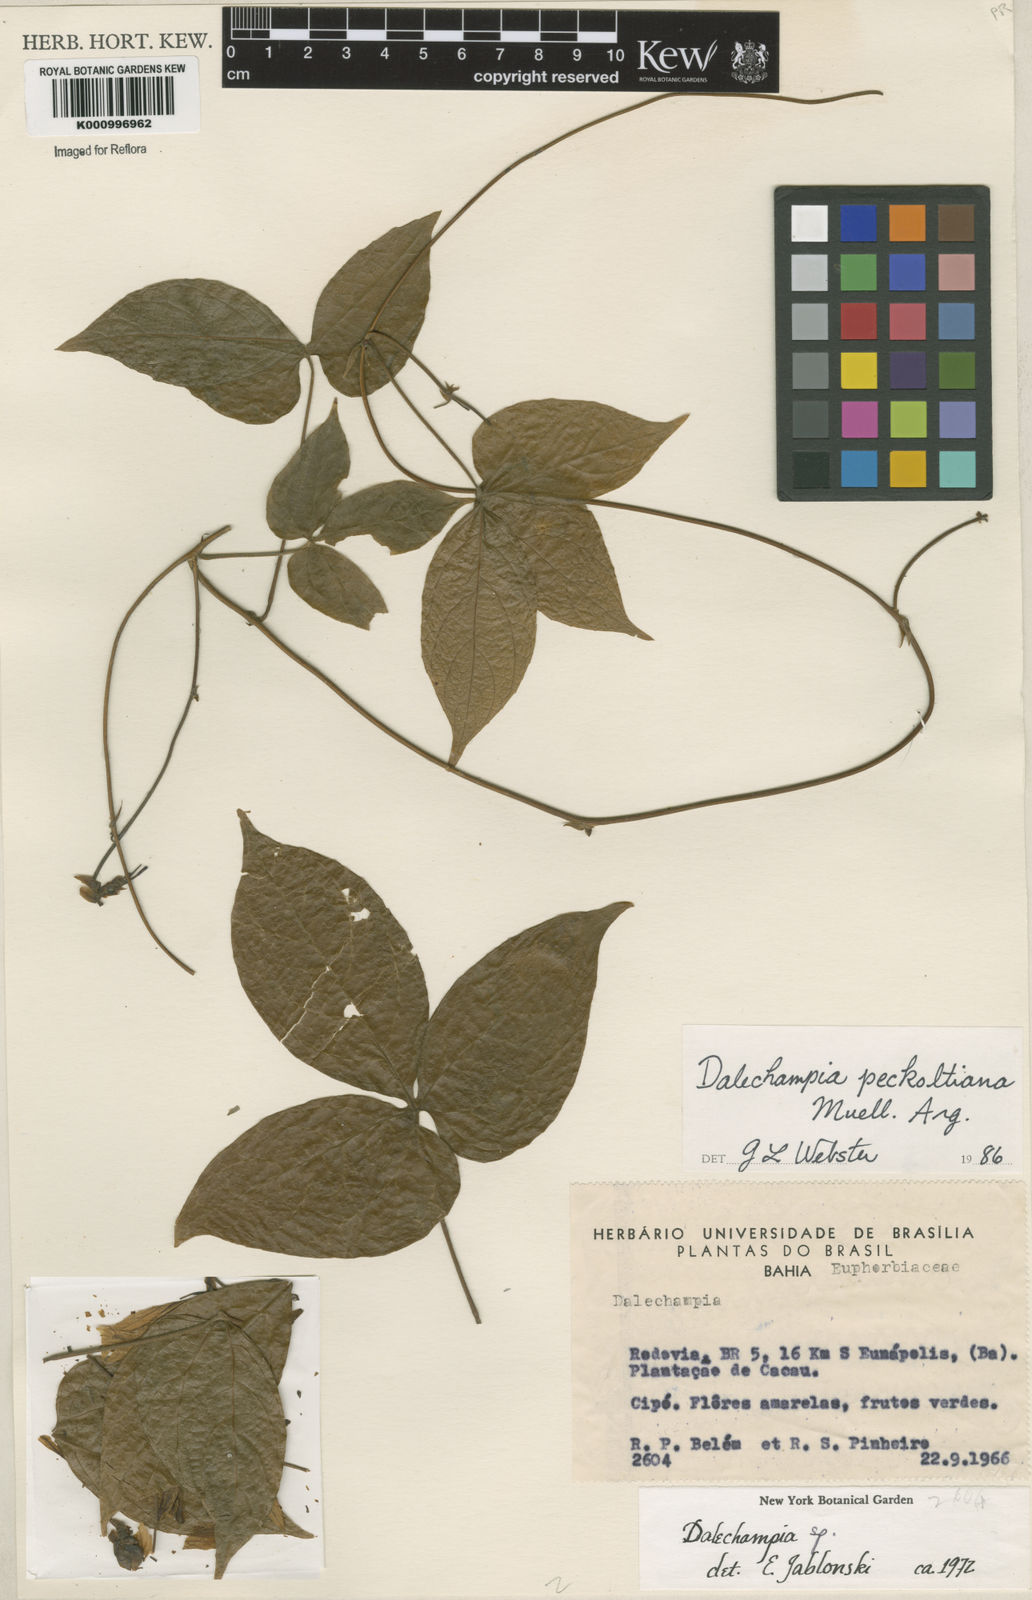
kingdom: Plantae
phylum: Tracheophyta
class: Magnoliopsida
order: Malpighiales
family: Euphorbiaceae
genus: Dalechampia
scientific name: Dalechampia
